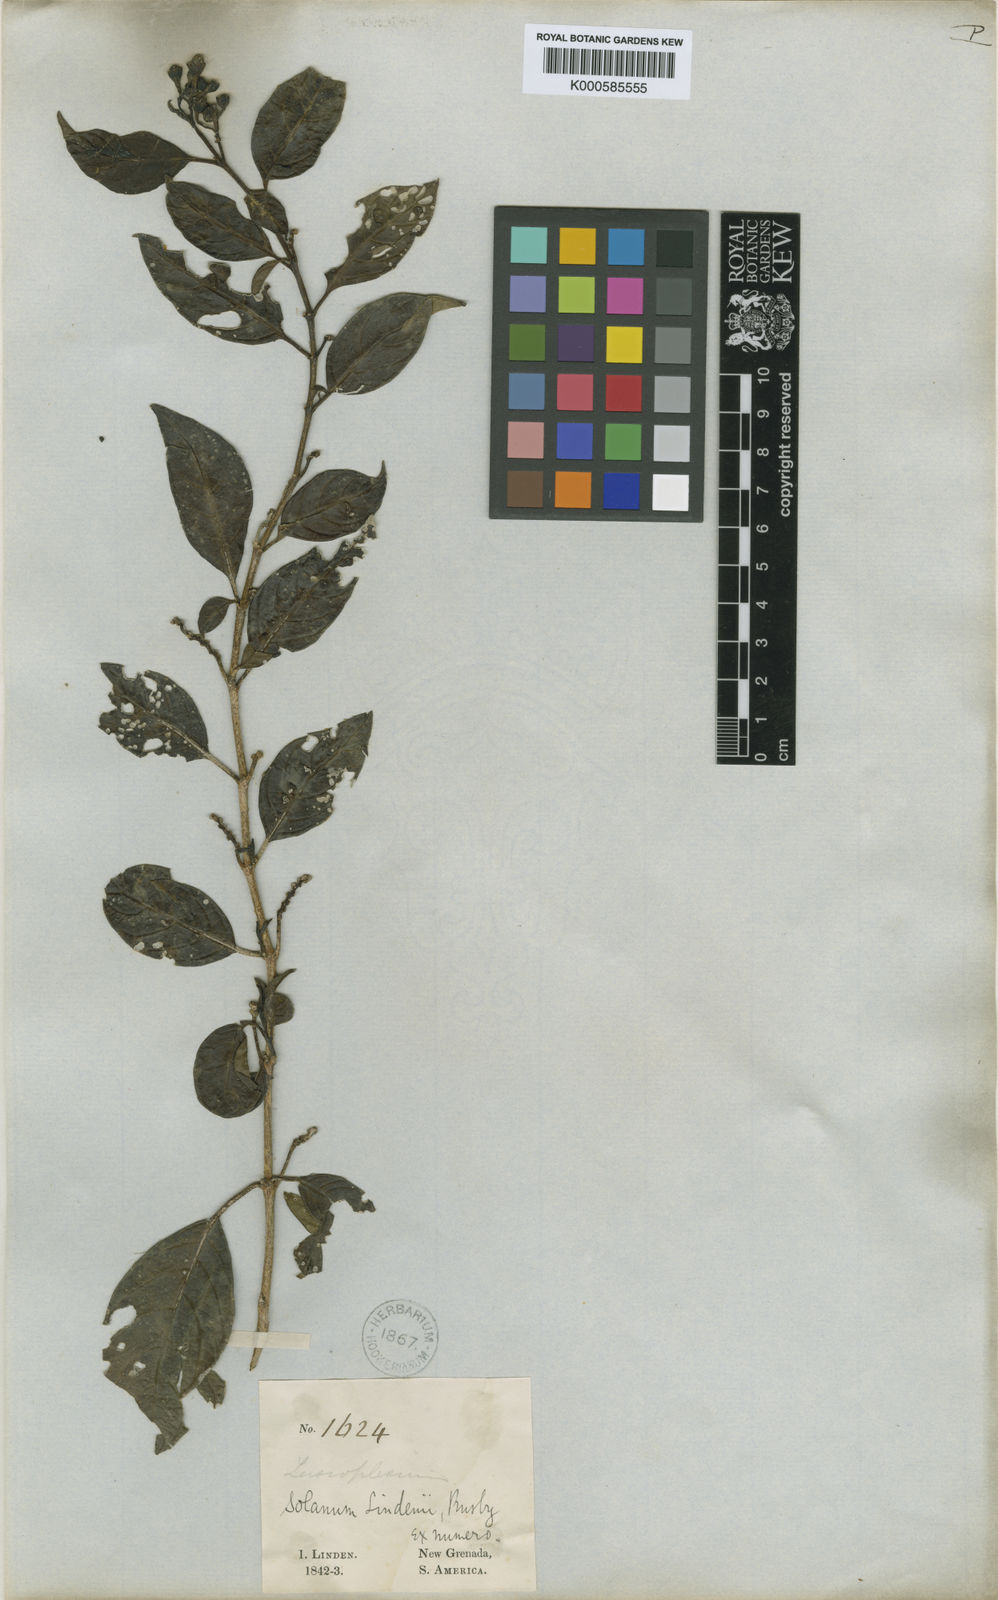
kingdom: Plantae
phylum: Tracheophyta
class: Magnoliopsida
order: Solanales
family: Solanaceae
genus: Solanum
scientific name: Solanum lindenii
